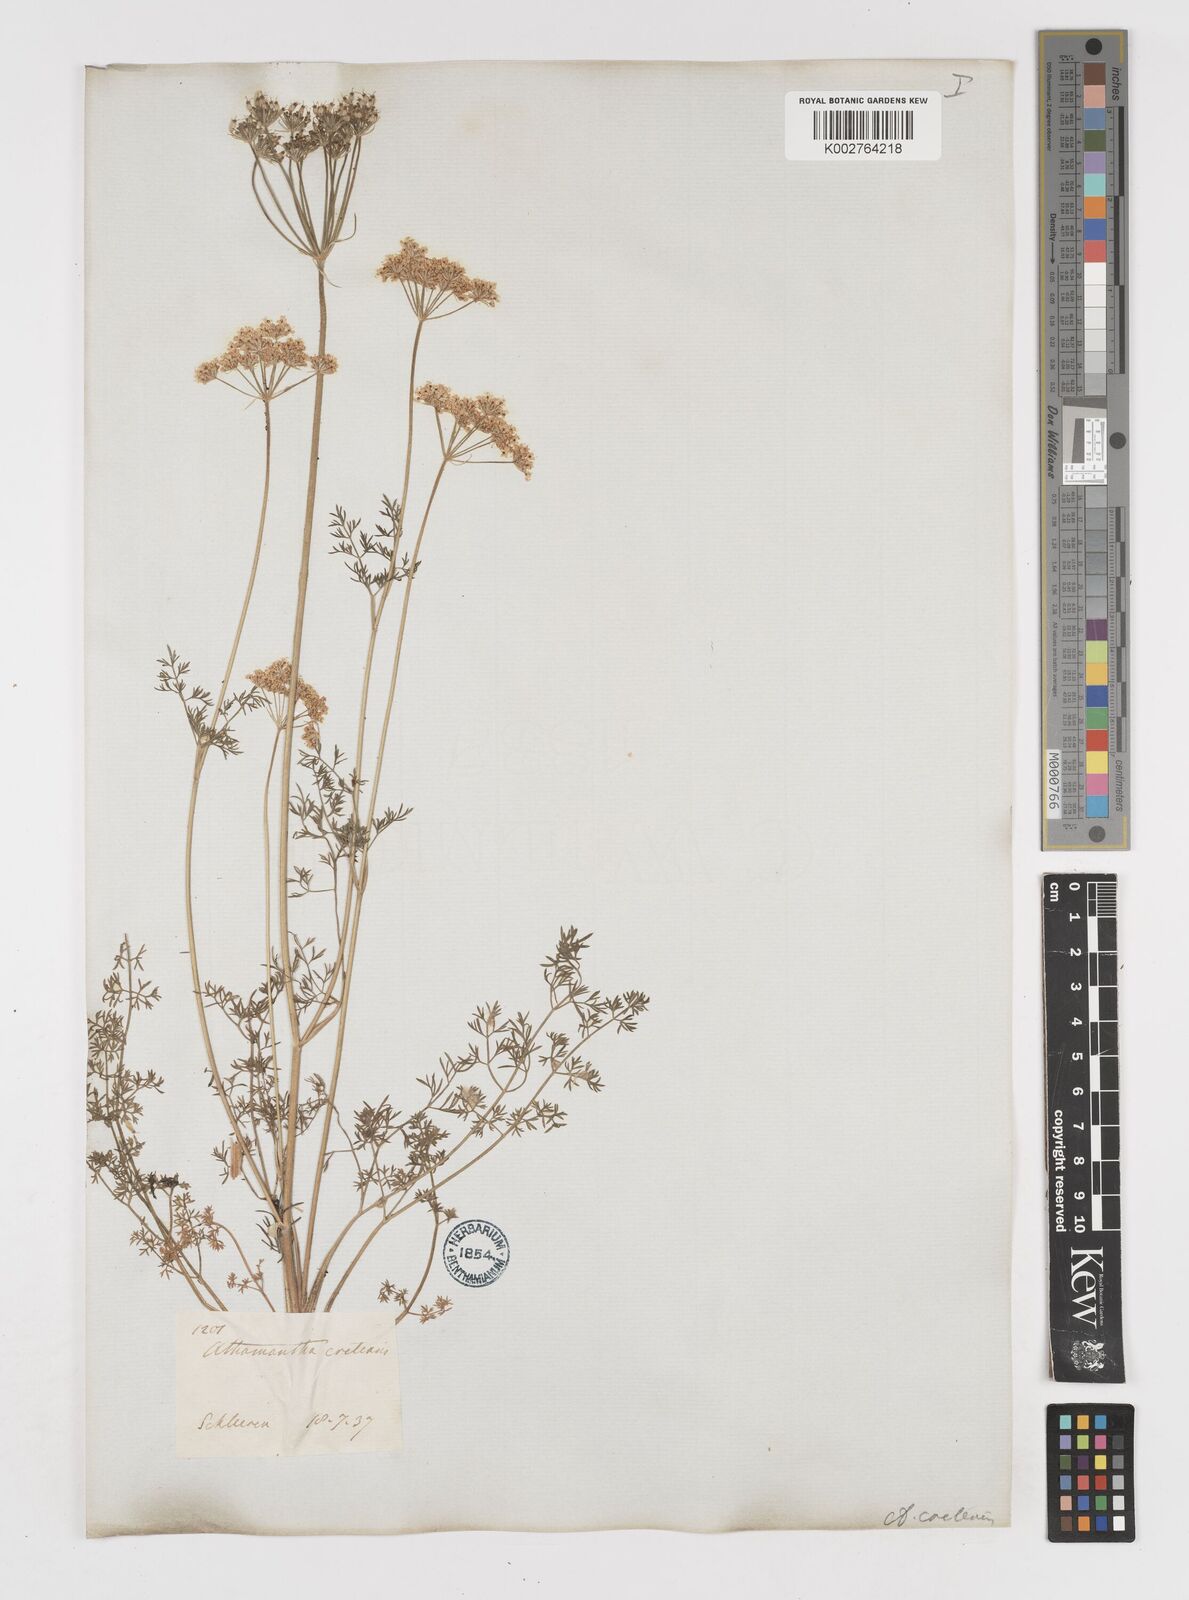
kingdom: Plantae
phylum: Tracheophyta
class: Magnoliopsida
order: Apiales
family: Apiaceae
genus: Athamanta
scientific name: Athamanta cretensis
